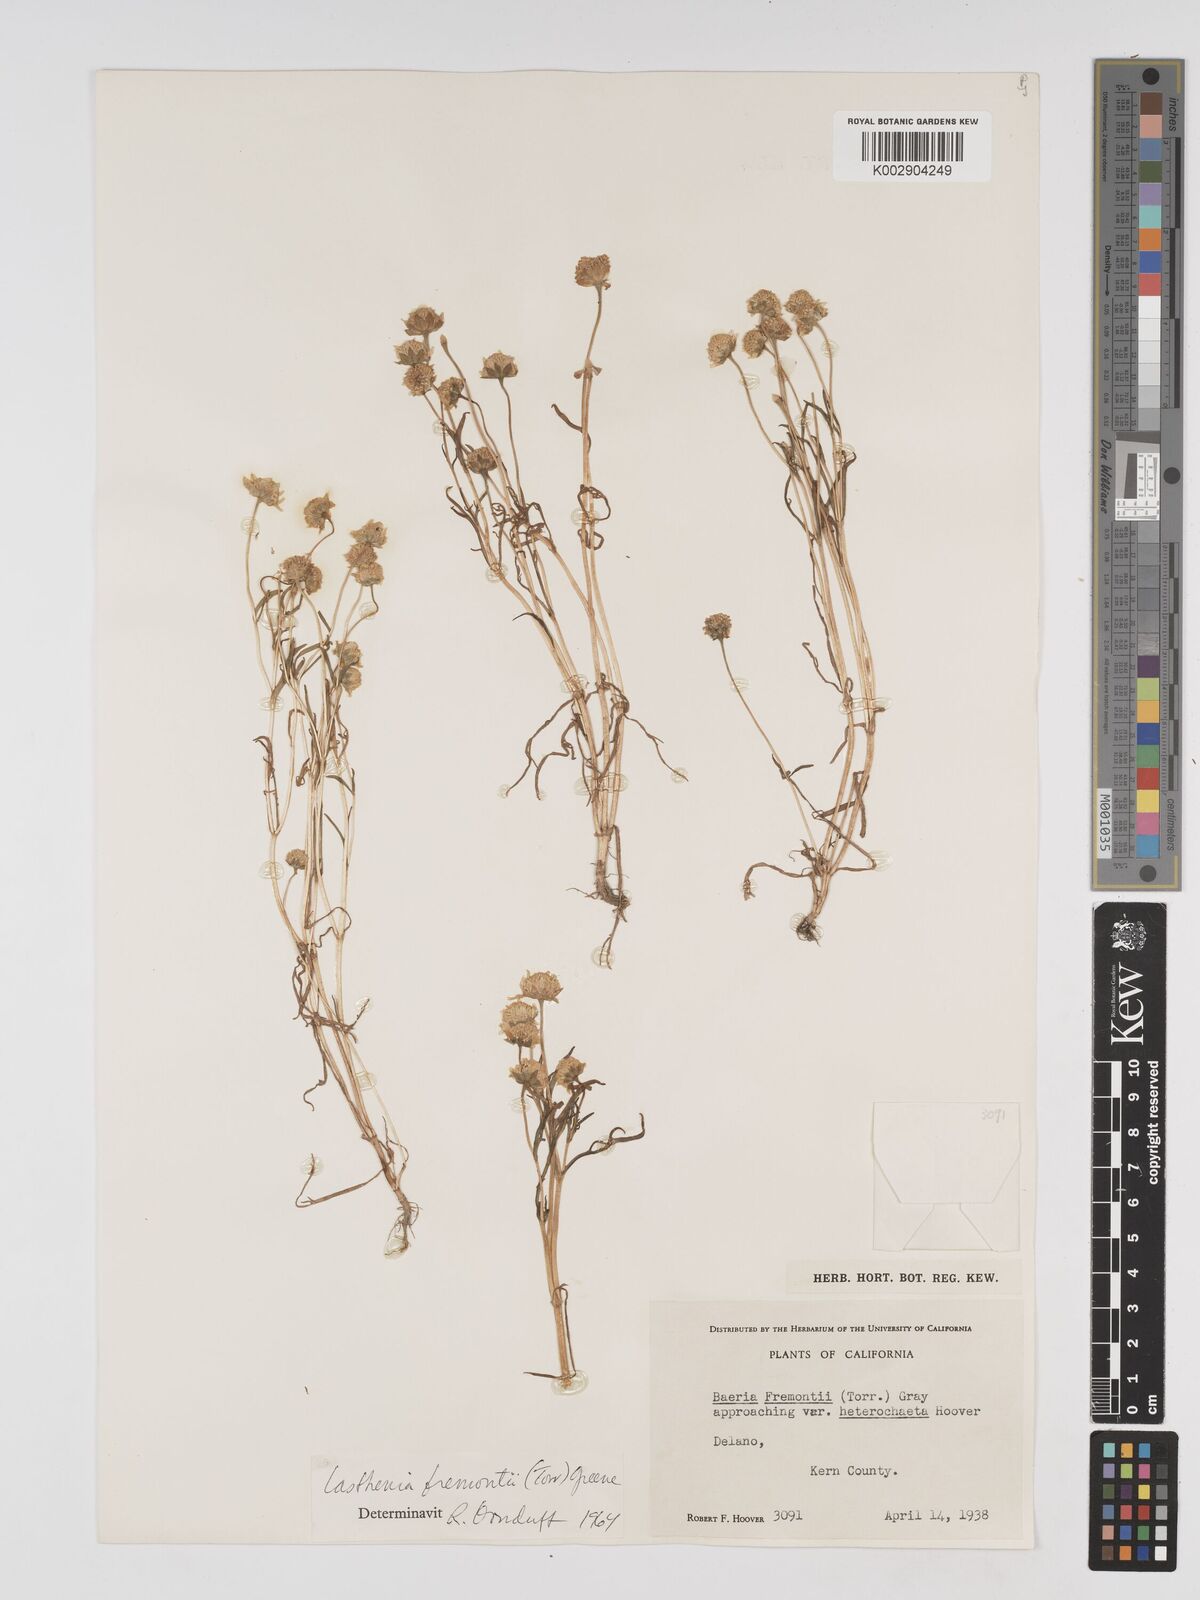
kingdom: Plantae
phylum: Tracheophyta
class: Magnoliopsida
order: Asterales
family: Asteraceae
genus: Lasthenia
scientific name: Lasthenia fremontii
